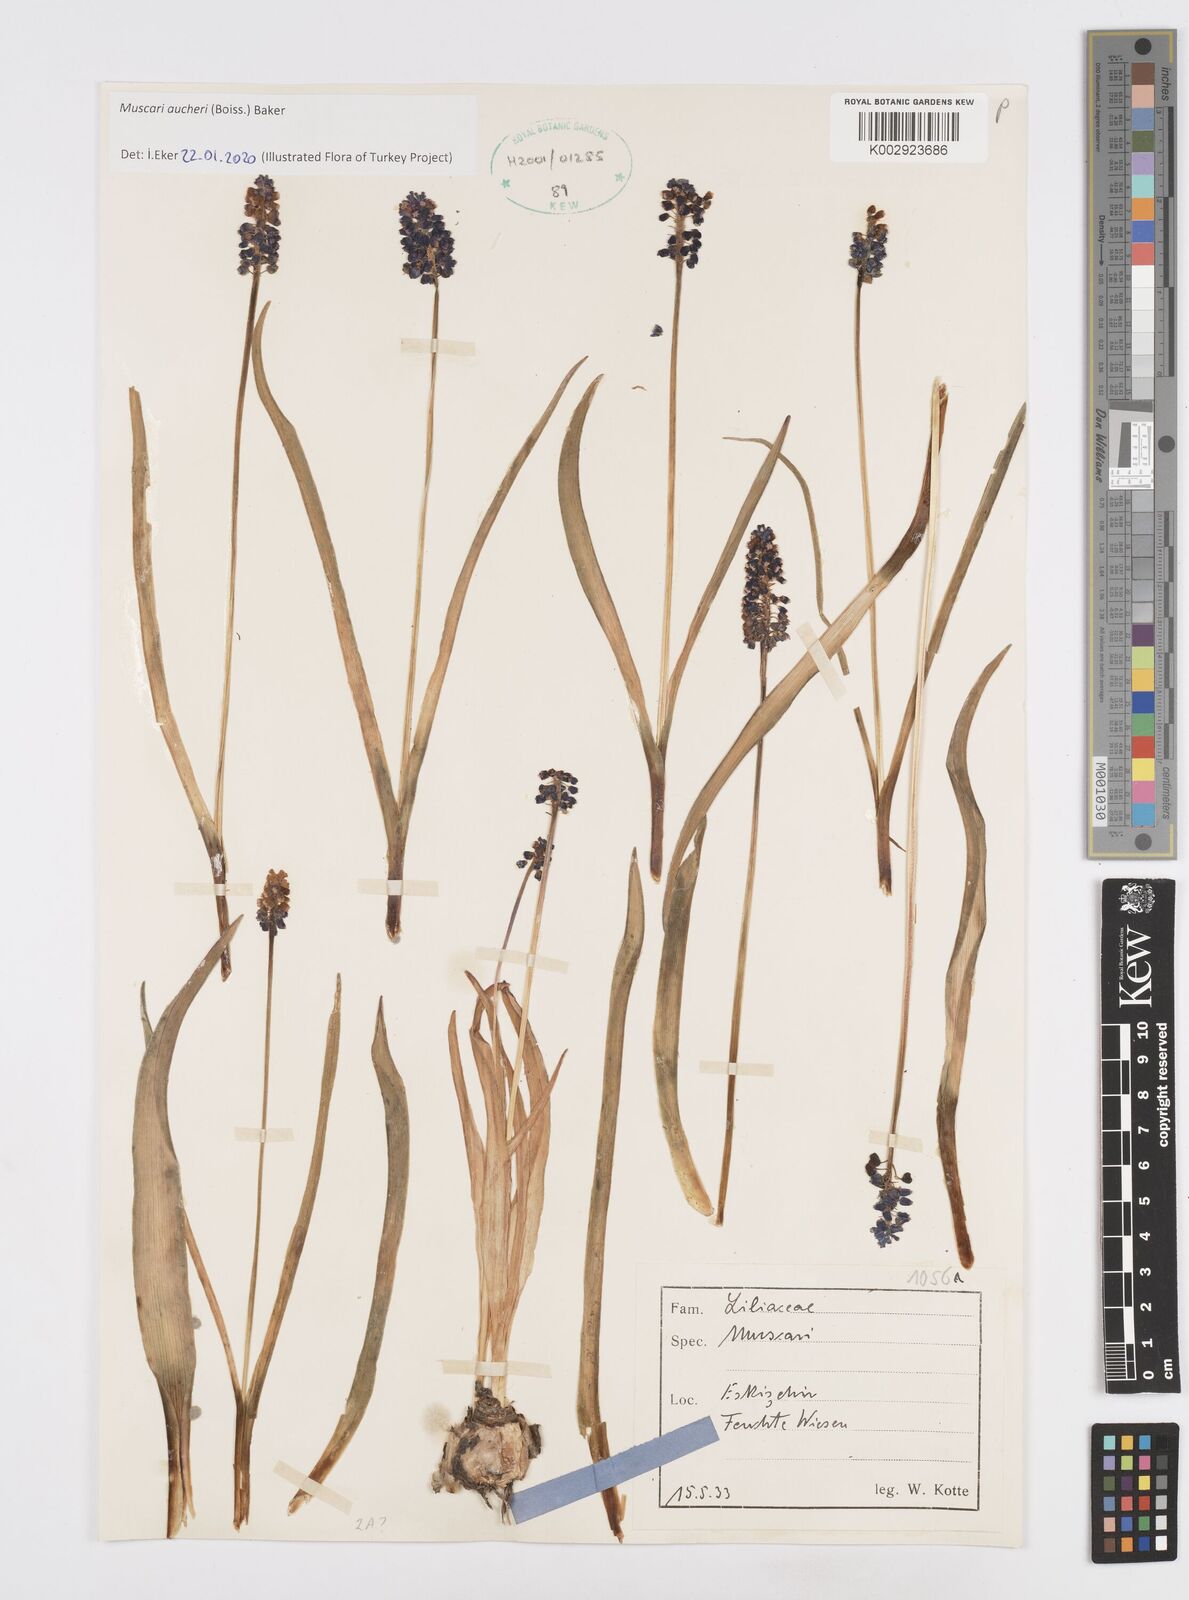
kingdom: Plantae
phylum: Tracheophyta
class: Liliopsida
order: Asparagales
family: Asparagaceae
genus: Muscari
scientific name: Muscari aucheri
